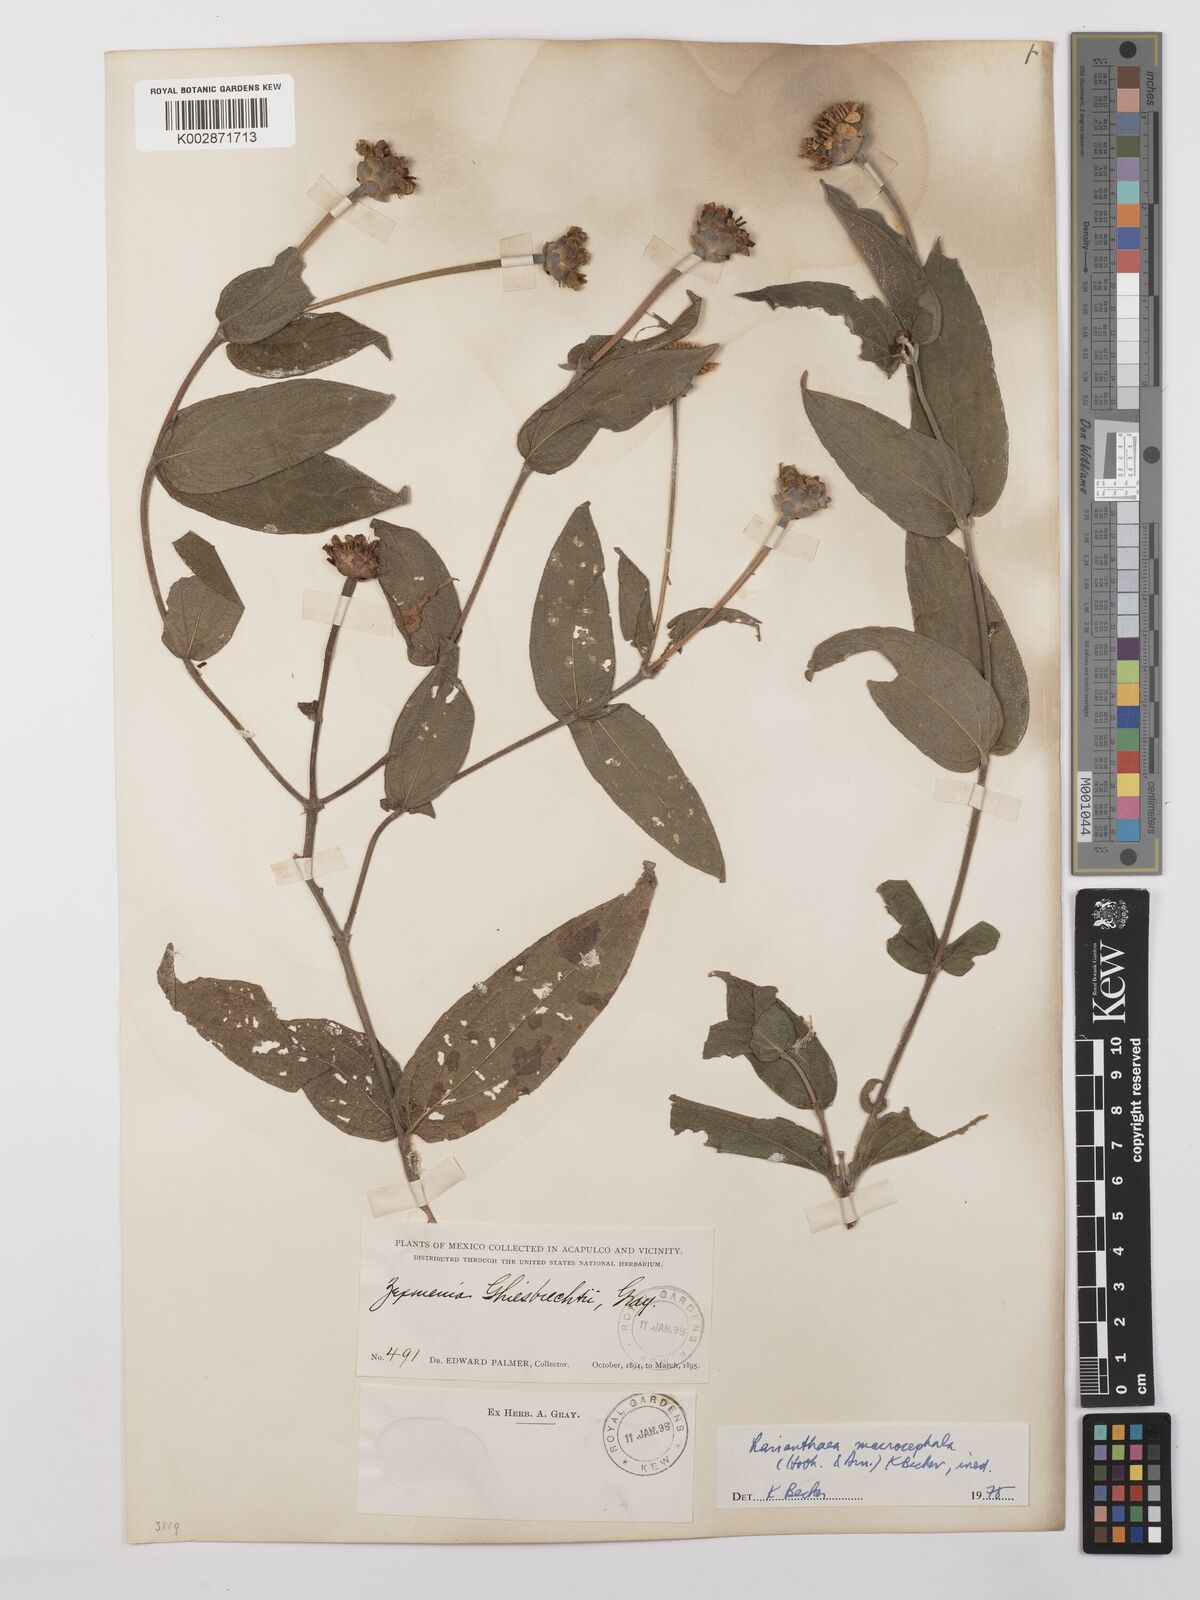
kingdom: Plantae
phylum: Tracheophyta
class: Magnoliopsida
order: Asterales
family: Asteraceae
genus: Lasianthaea
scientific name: Lasianthaea macrocephala
